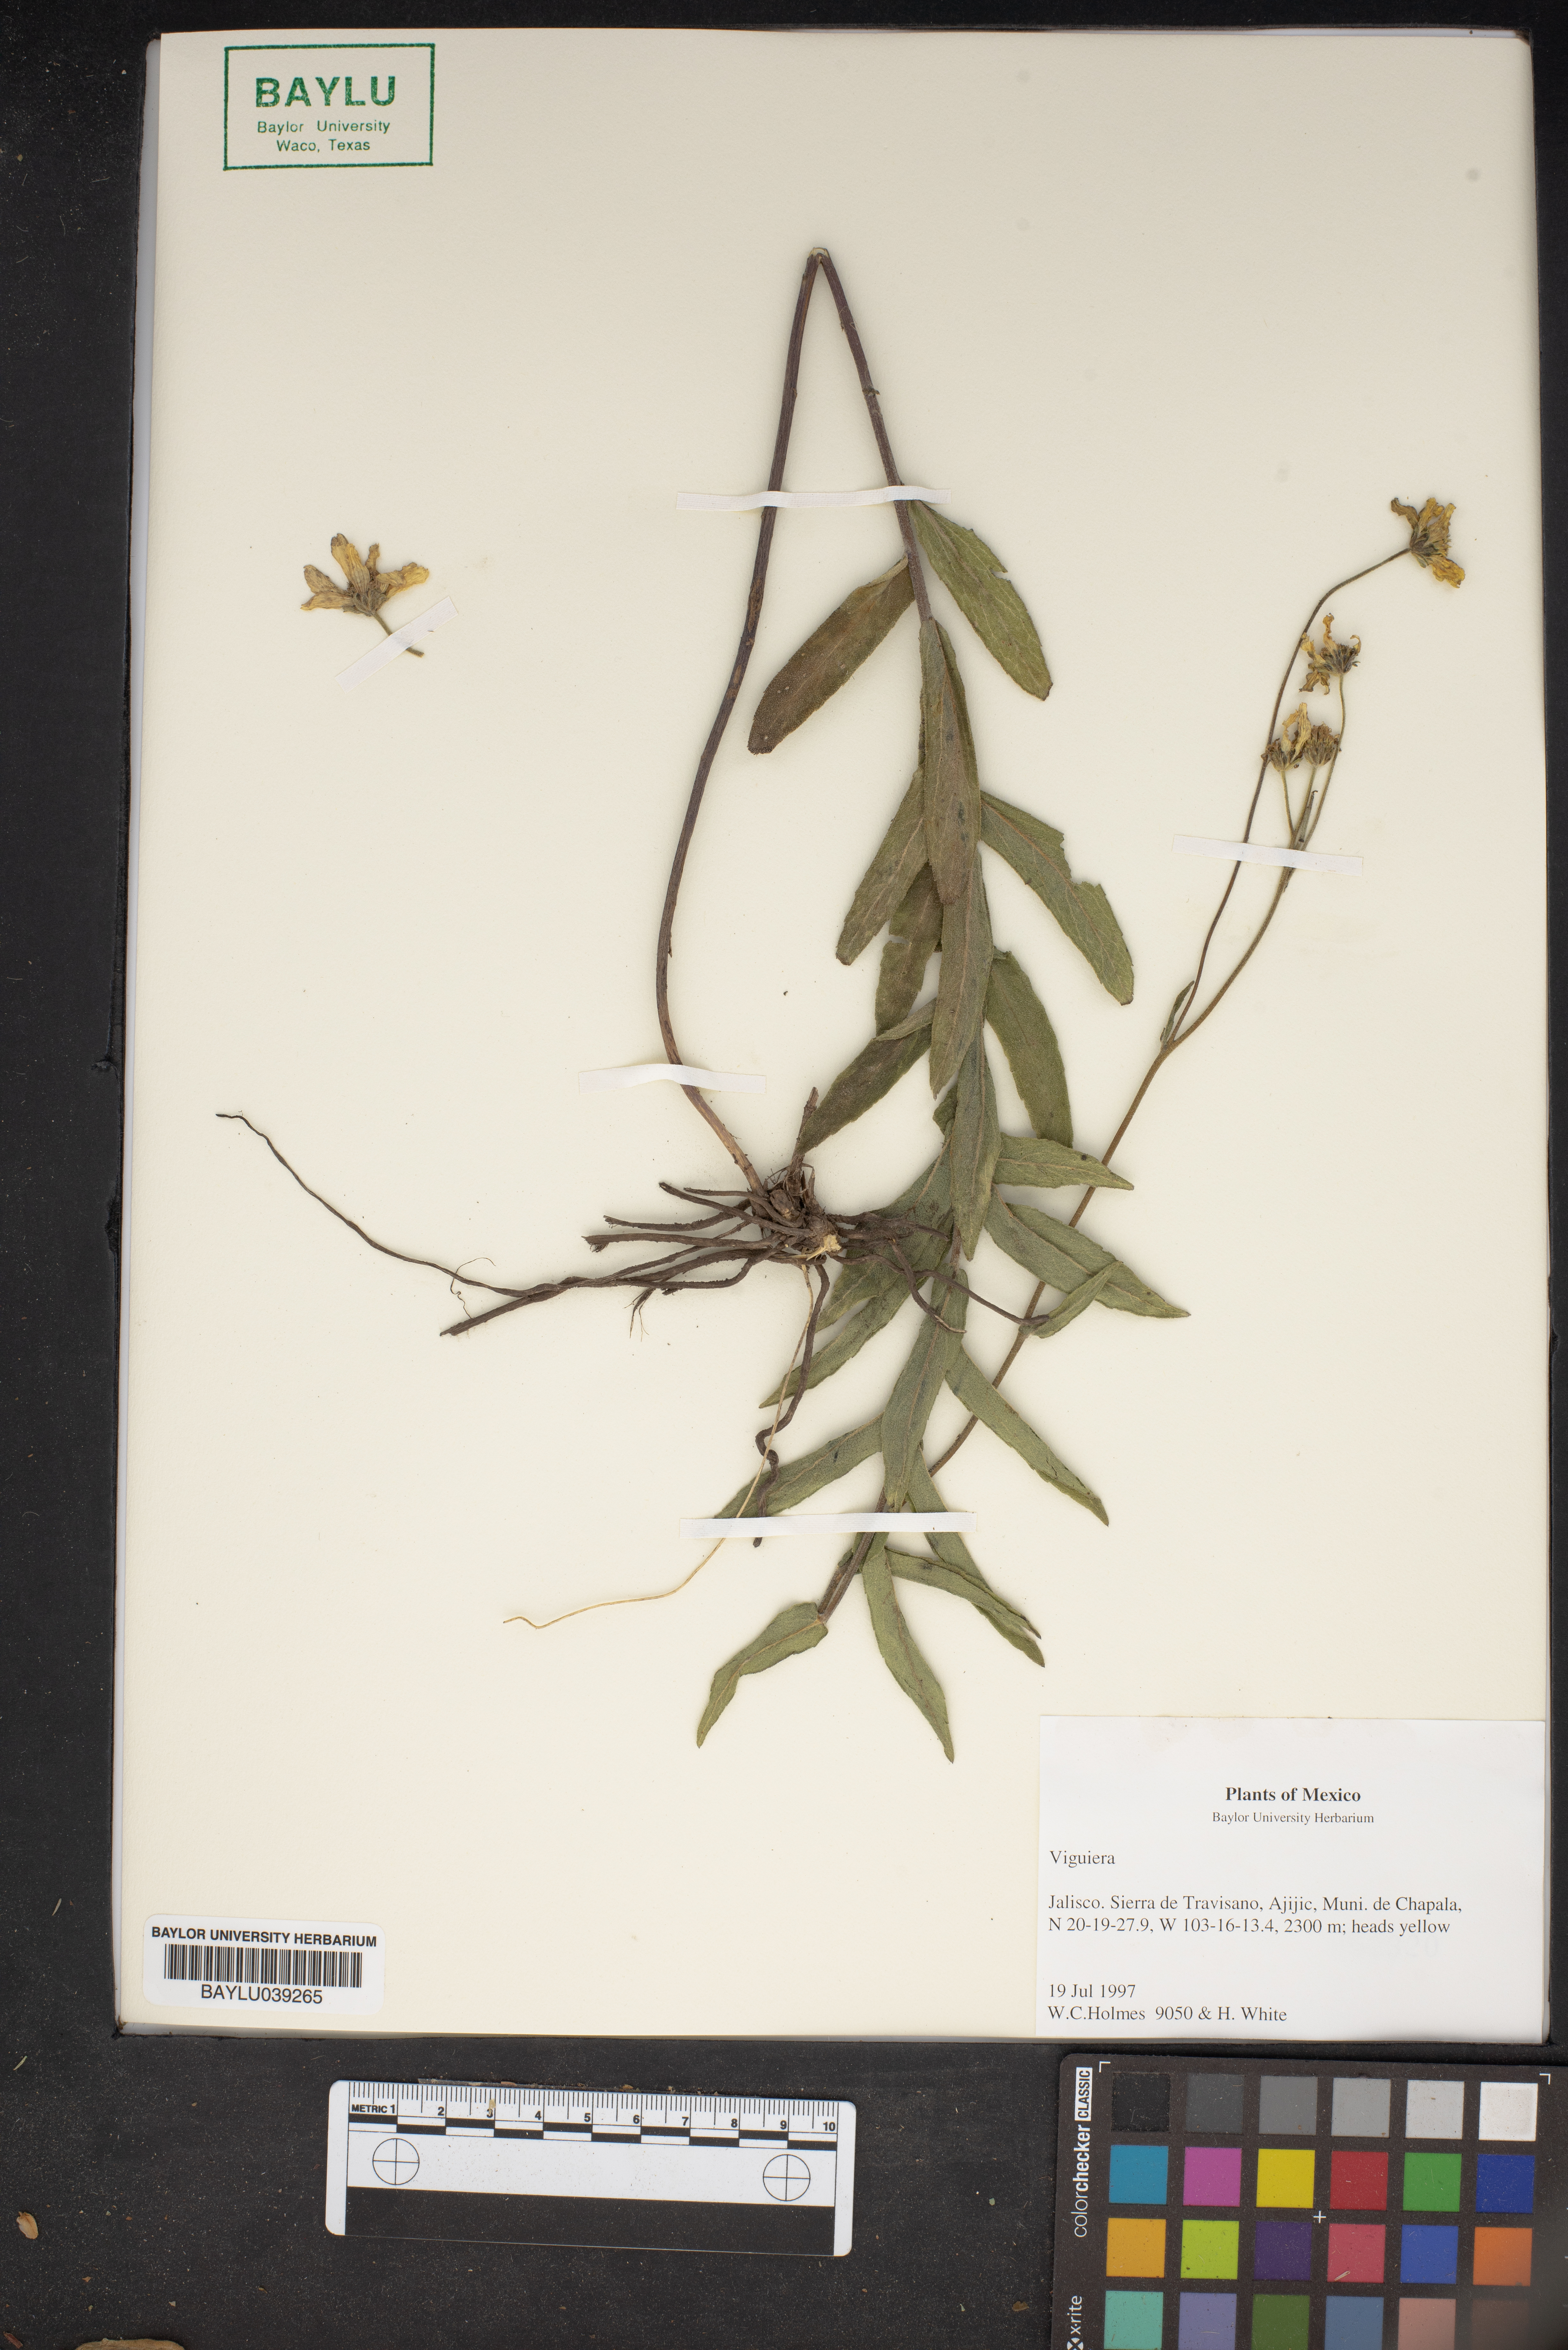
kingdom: Plantae
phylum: Tracheophyta
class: Magnoliopsida
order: Asterales
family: Asteraceae
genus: Viguiera
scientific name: Viguiera
